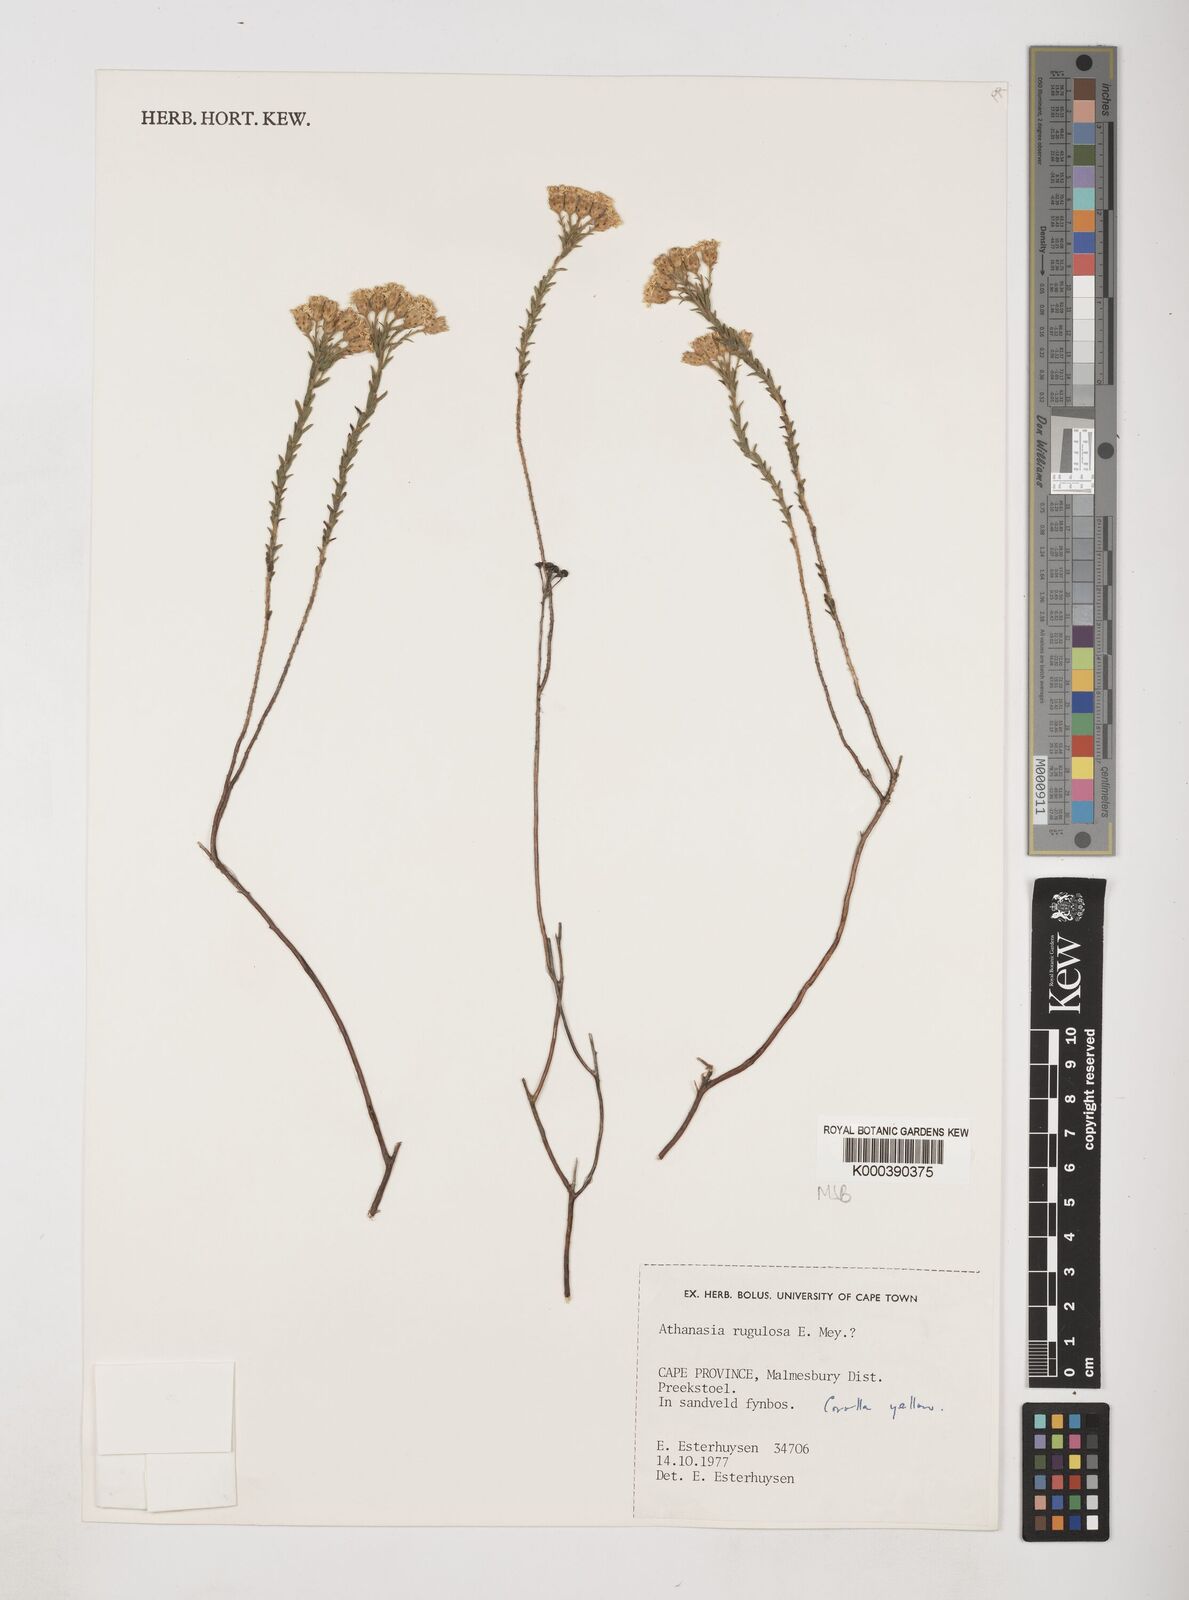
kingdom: Plantae
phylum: Tracheophyta
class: Magnoliopsida
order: Asterales
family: Asteraceae
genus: Athanasia
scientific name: Athanasia rugulosa
